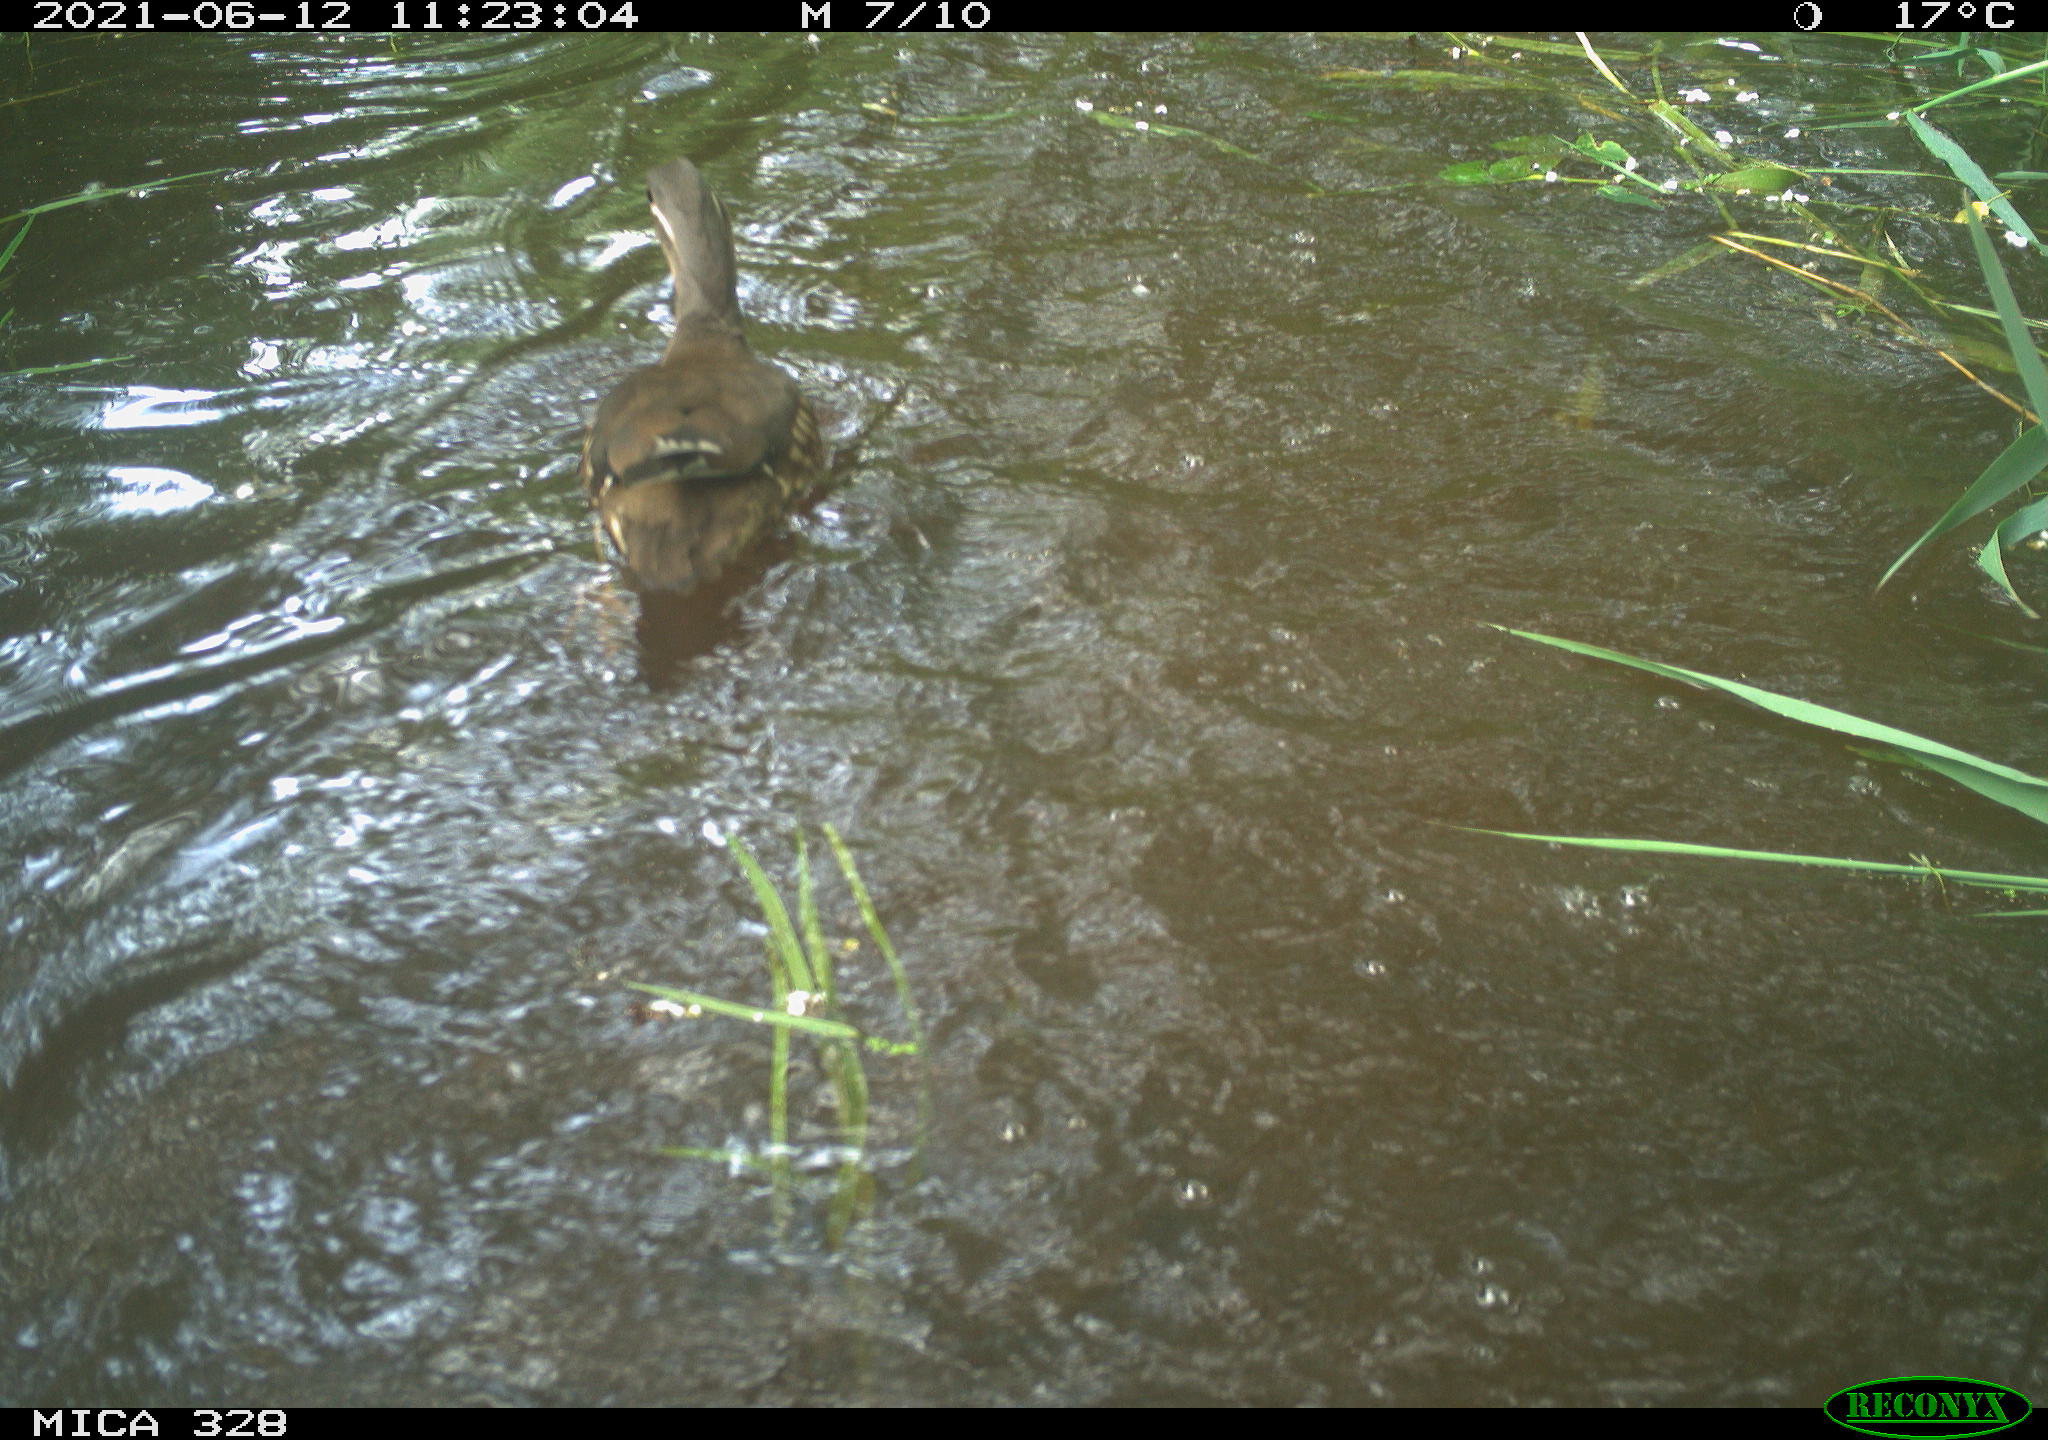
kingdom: Animalia
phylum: Chordata
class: Aves
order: Anseriformes
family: Anatidae
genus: Aix
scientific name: Aix galericulata
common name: Mandarin duck
